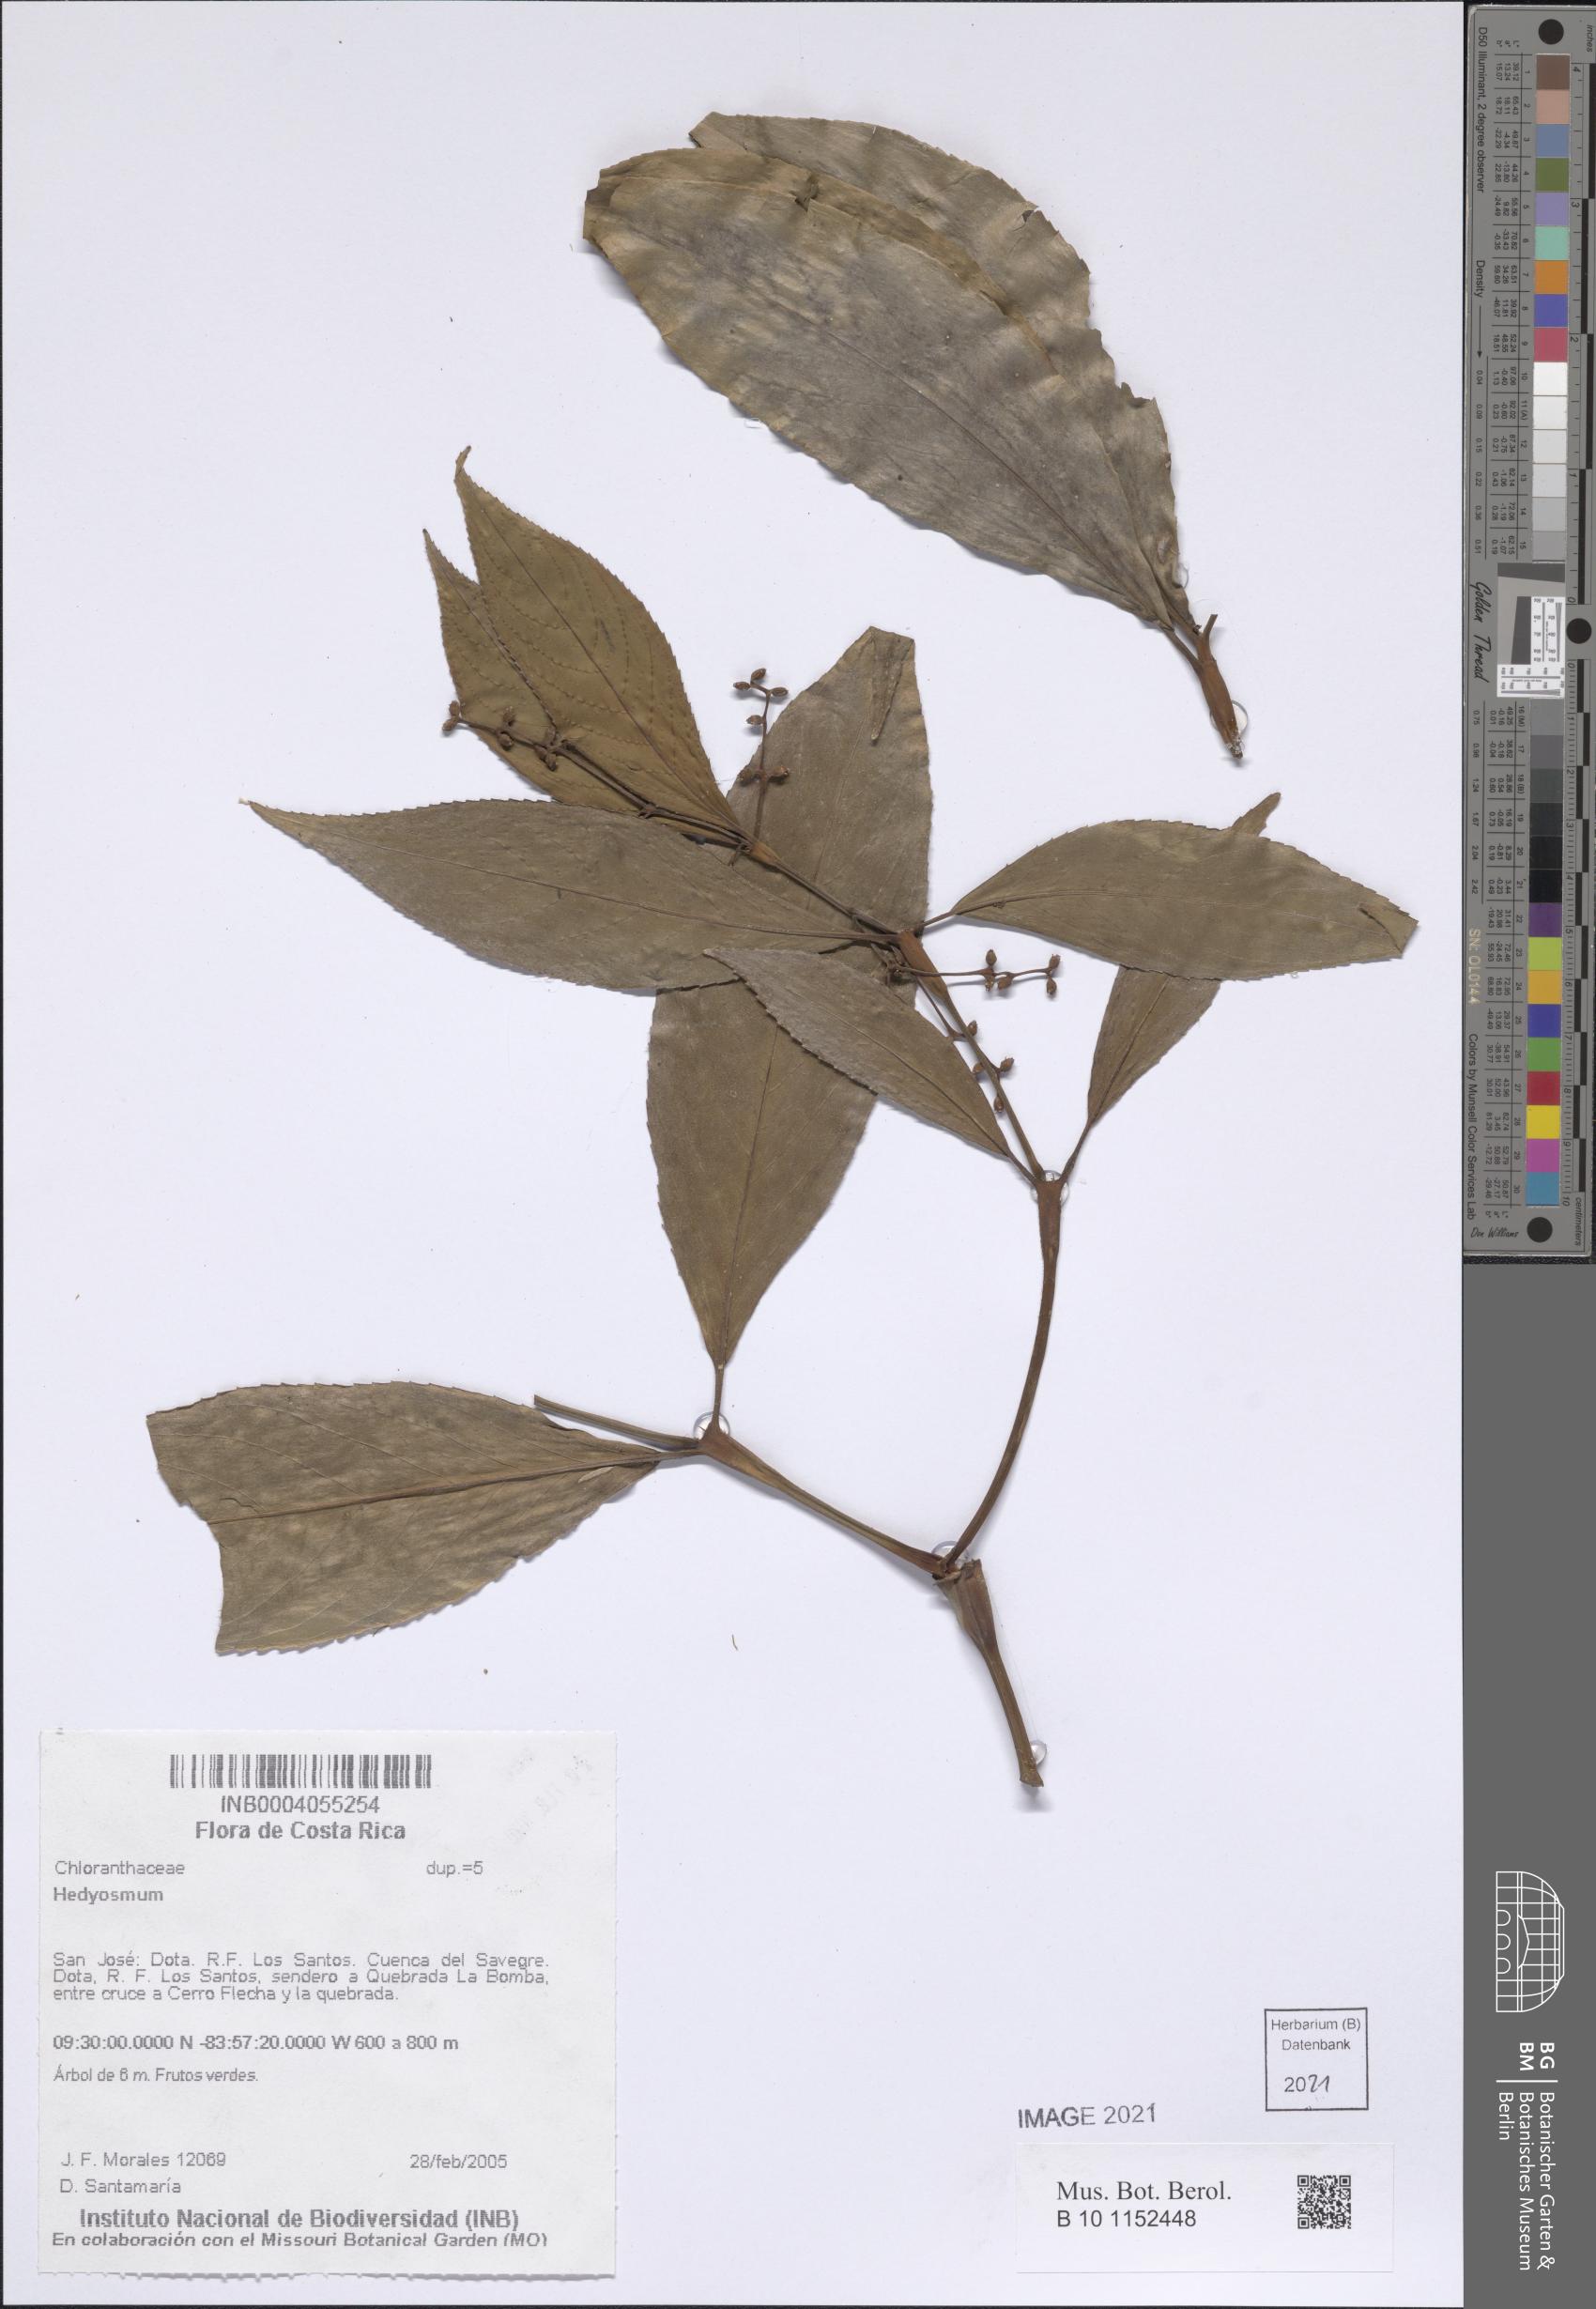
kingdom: Plantae
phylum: Tracheophyta
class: Magnoliopsida
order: Chloranthales
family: Chloranthaceae
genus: Hedyosmum
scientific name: Hedyosmum
